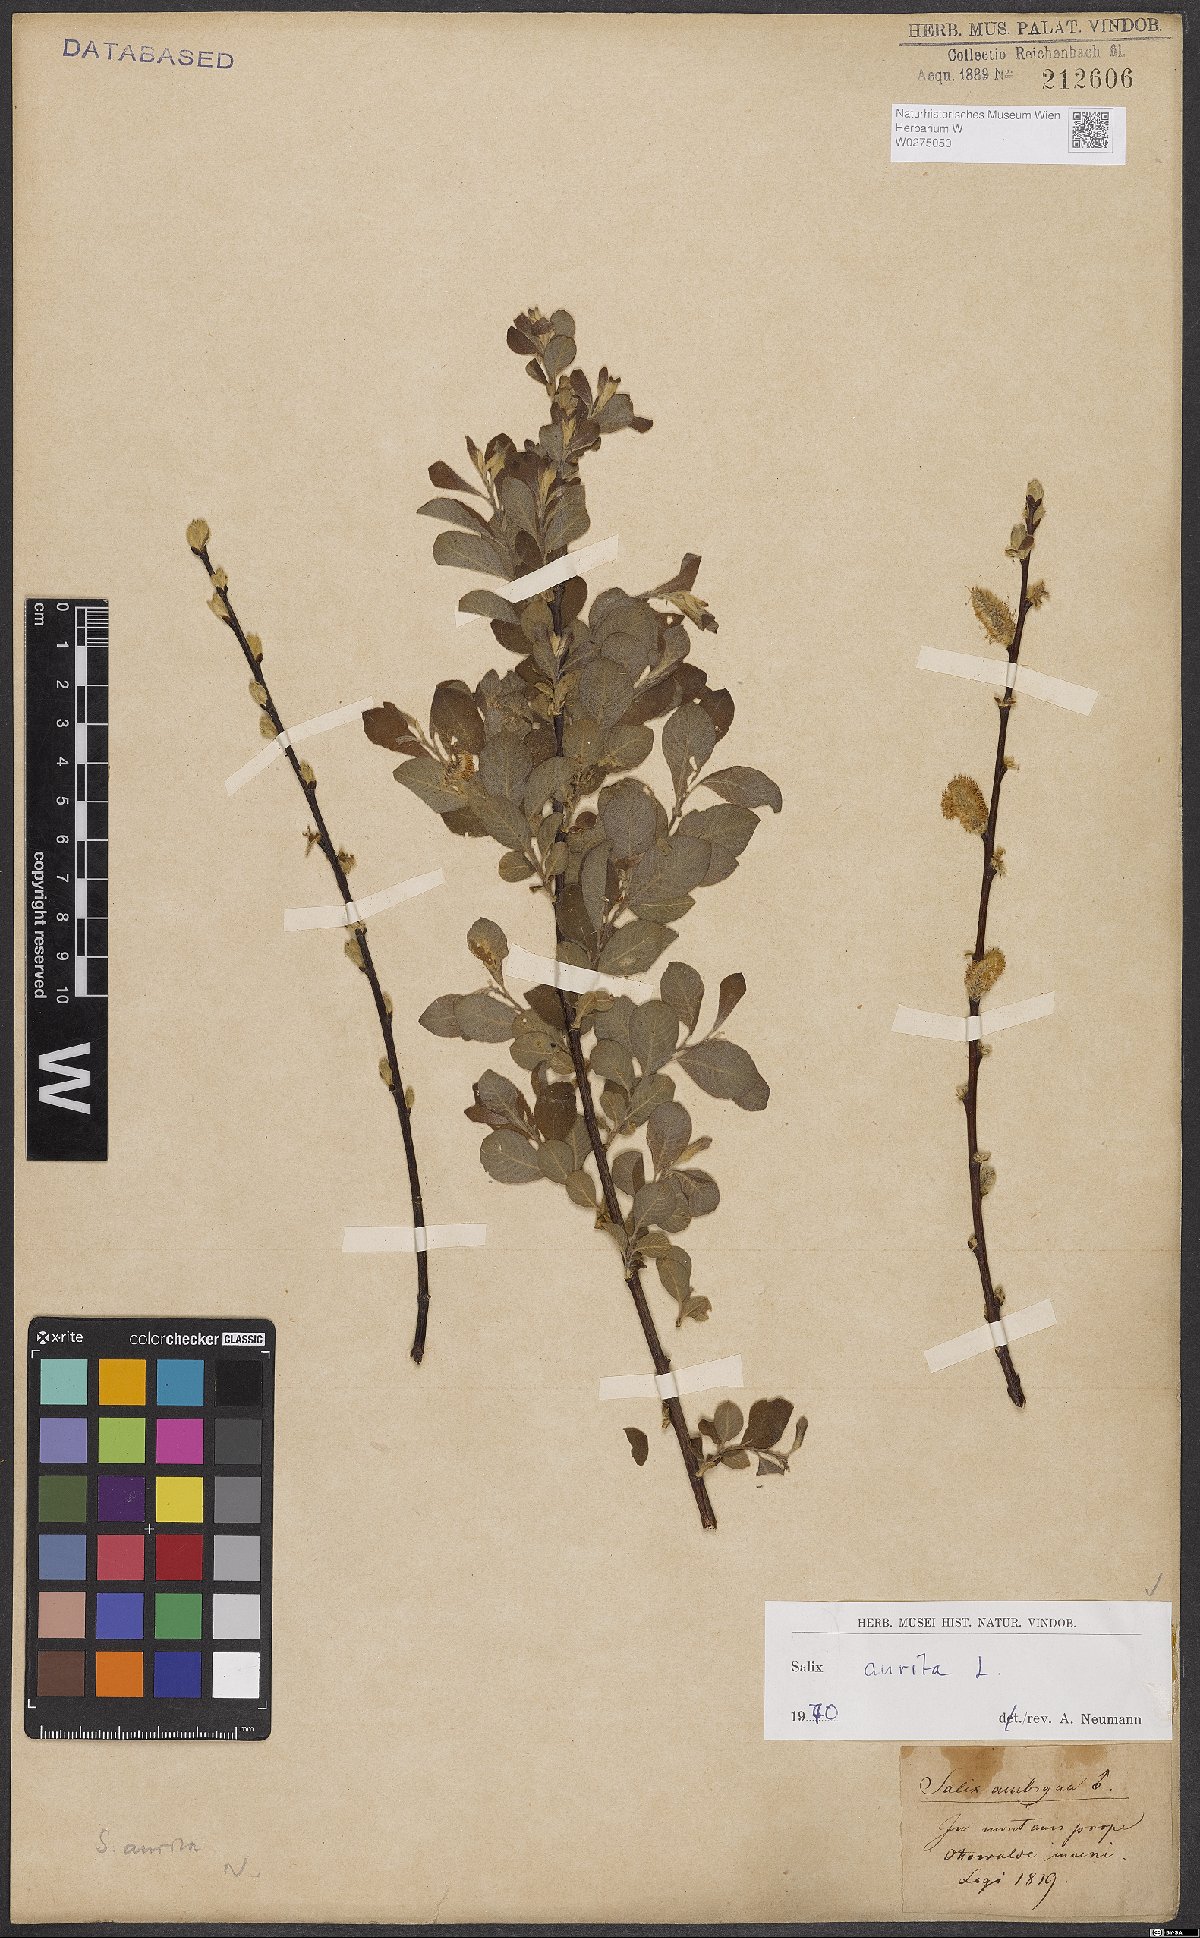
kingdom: Plantae
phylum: Tracheophyta
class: Magnoliopsida
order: Malpighiales
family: Salicaceae
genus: Salix
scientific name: Salix aurita
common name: Eared willow
